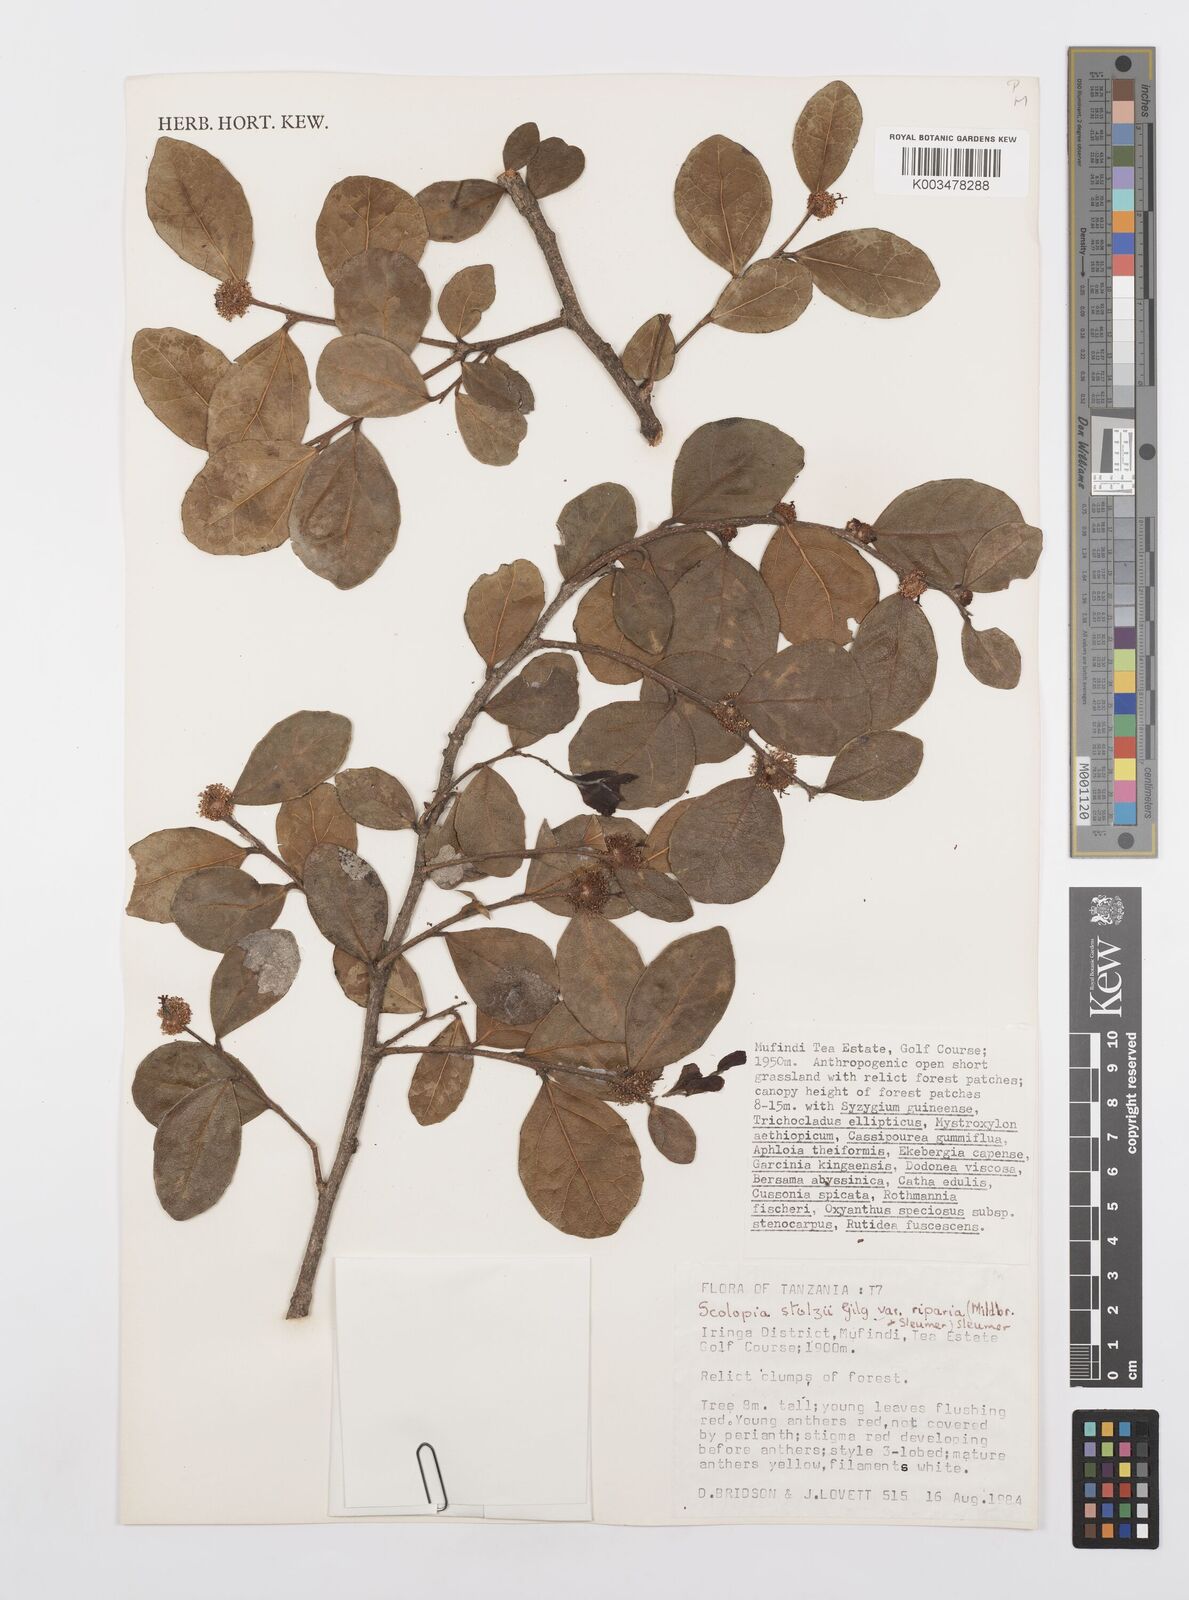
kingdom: Plantae
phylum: Tracheophyta
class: Magnoliopsida
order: Malpighiales
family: Salicaceae
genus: Scolopia
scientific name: Scolopia stolzii
